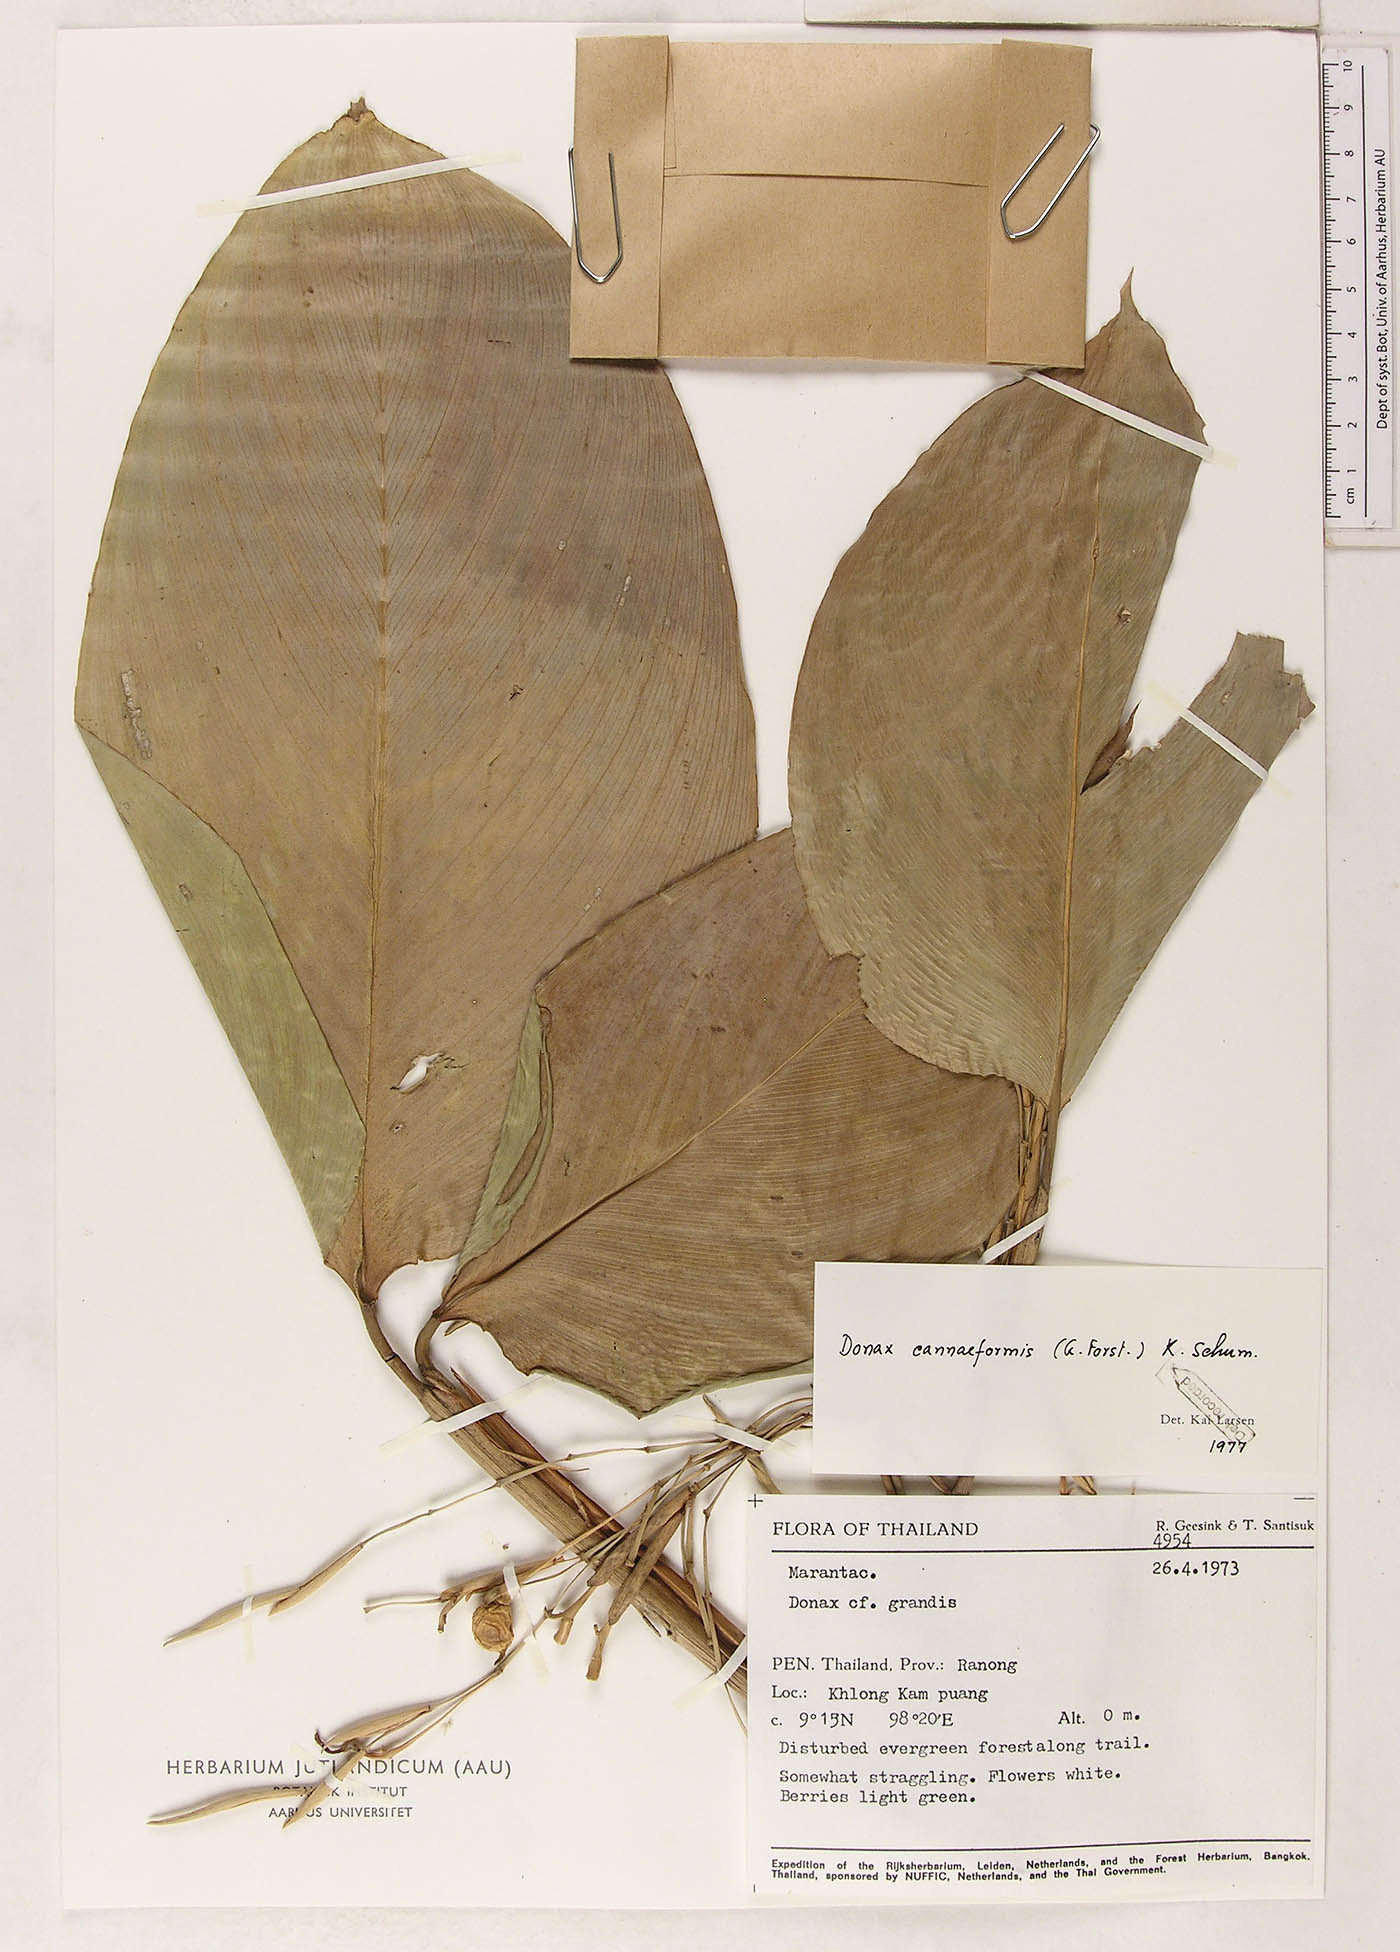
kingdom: Plantae
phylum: Tracheophyta
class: Liliopsida
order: Zingiberales
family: Marantaceae
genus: Donax
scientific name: Donax canniformis
